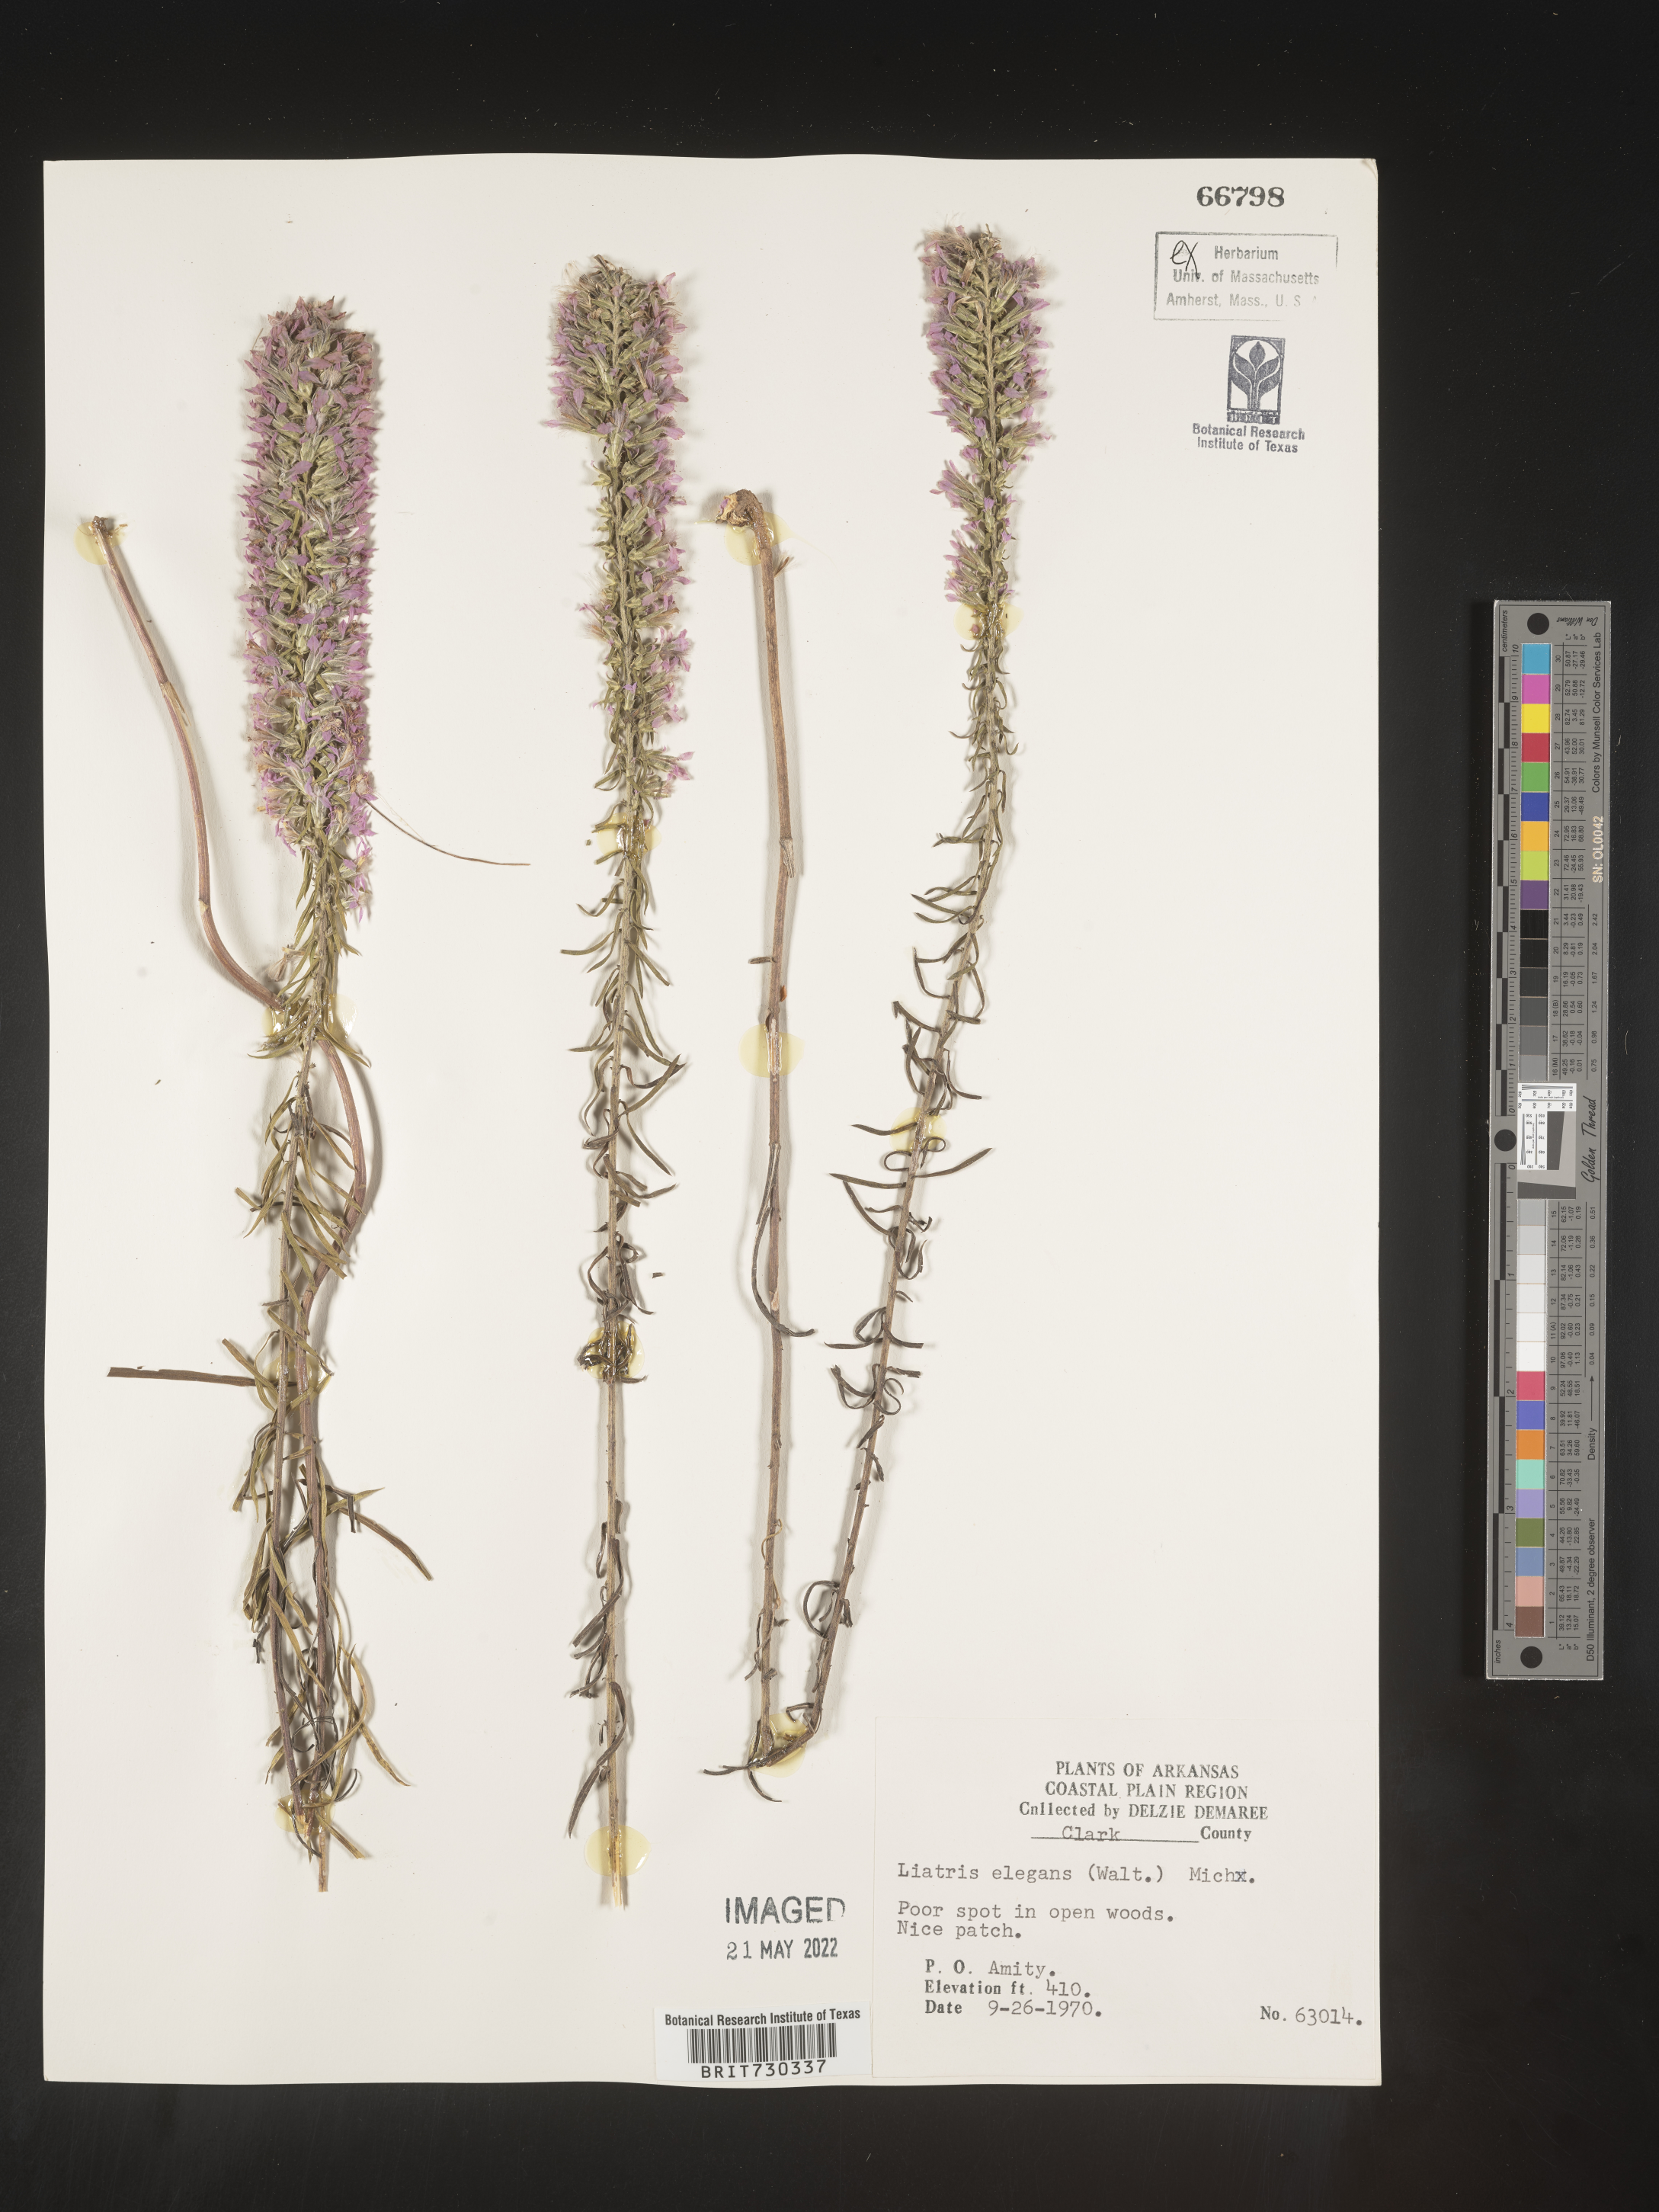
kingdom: Plantae
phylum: Tracheophyta
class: Magnoliopsida
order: Asterales
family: Asteraceae
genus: Liatris
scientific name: Liatris elegans
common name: Pinkscale gayfeather
